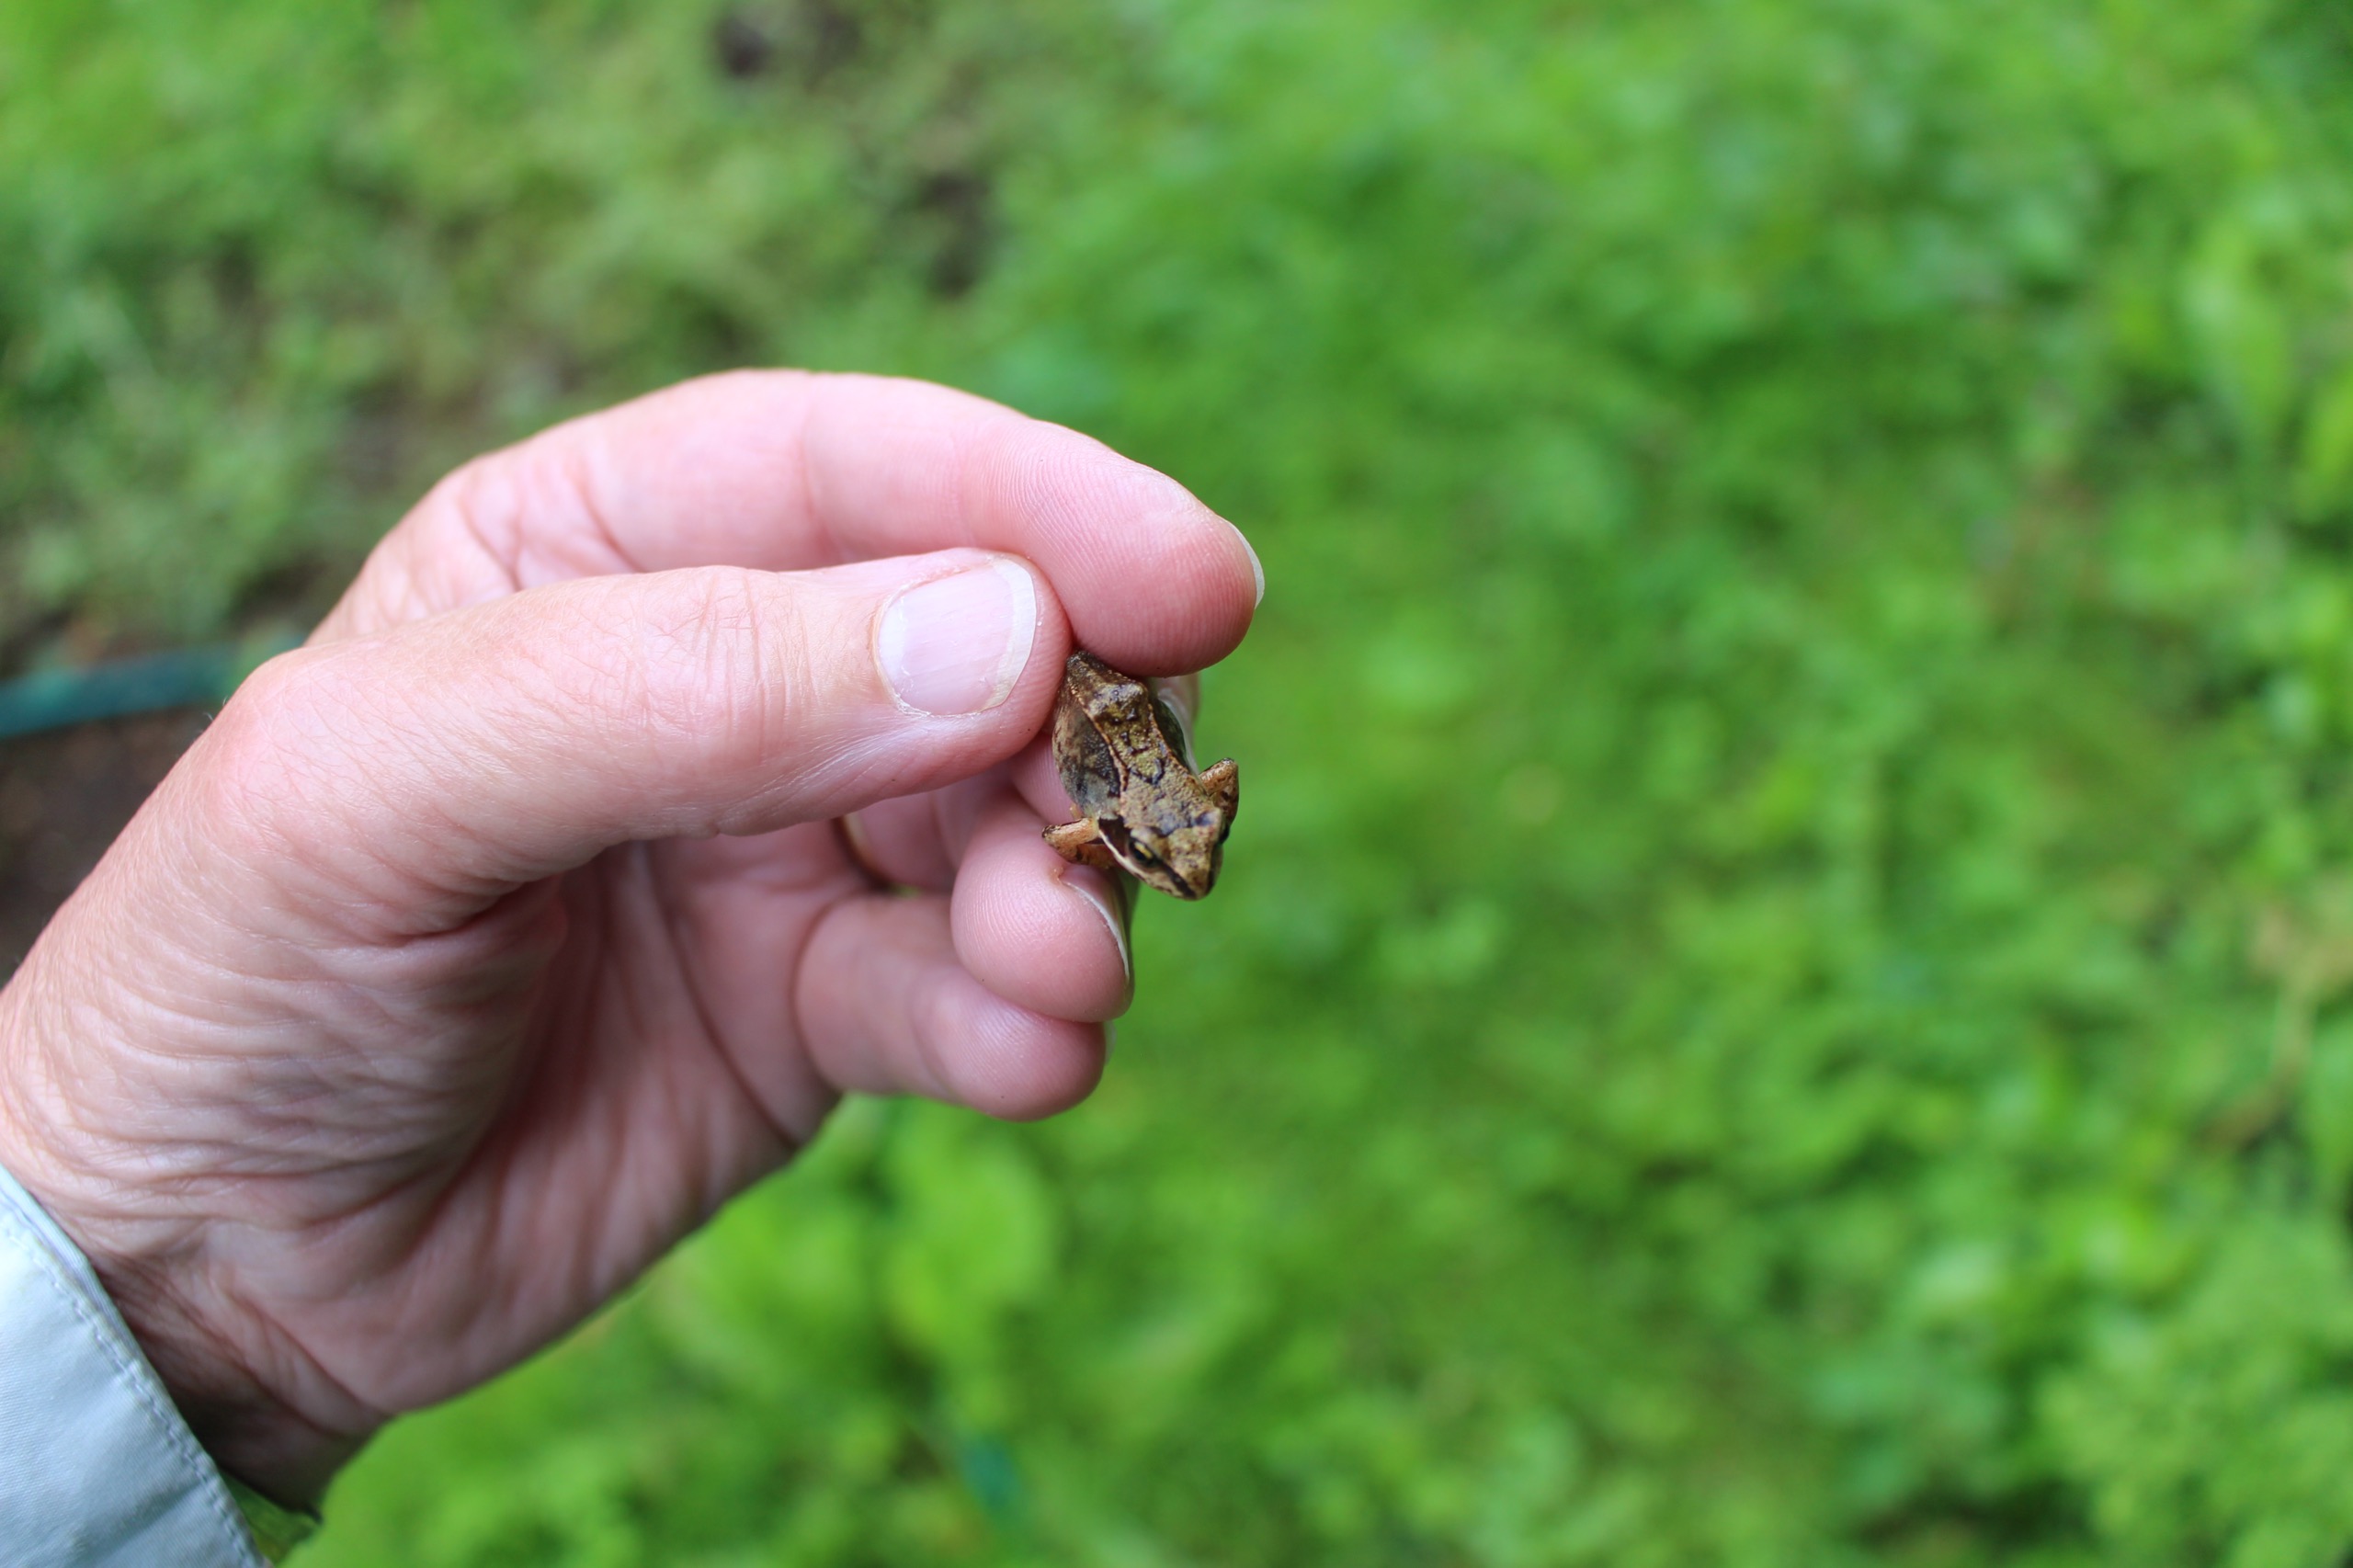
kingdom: Animalia
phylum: Chordata
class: Amphibia
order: Anura
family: Ranidae
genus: Rana
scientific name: Rana temporaria
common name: Butsnudet frø
